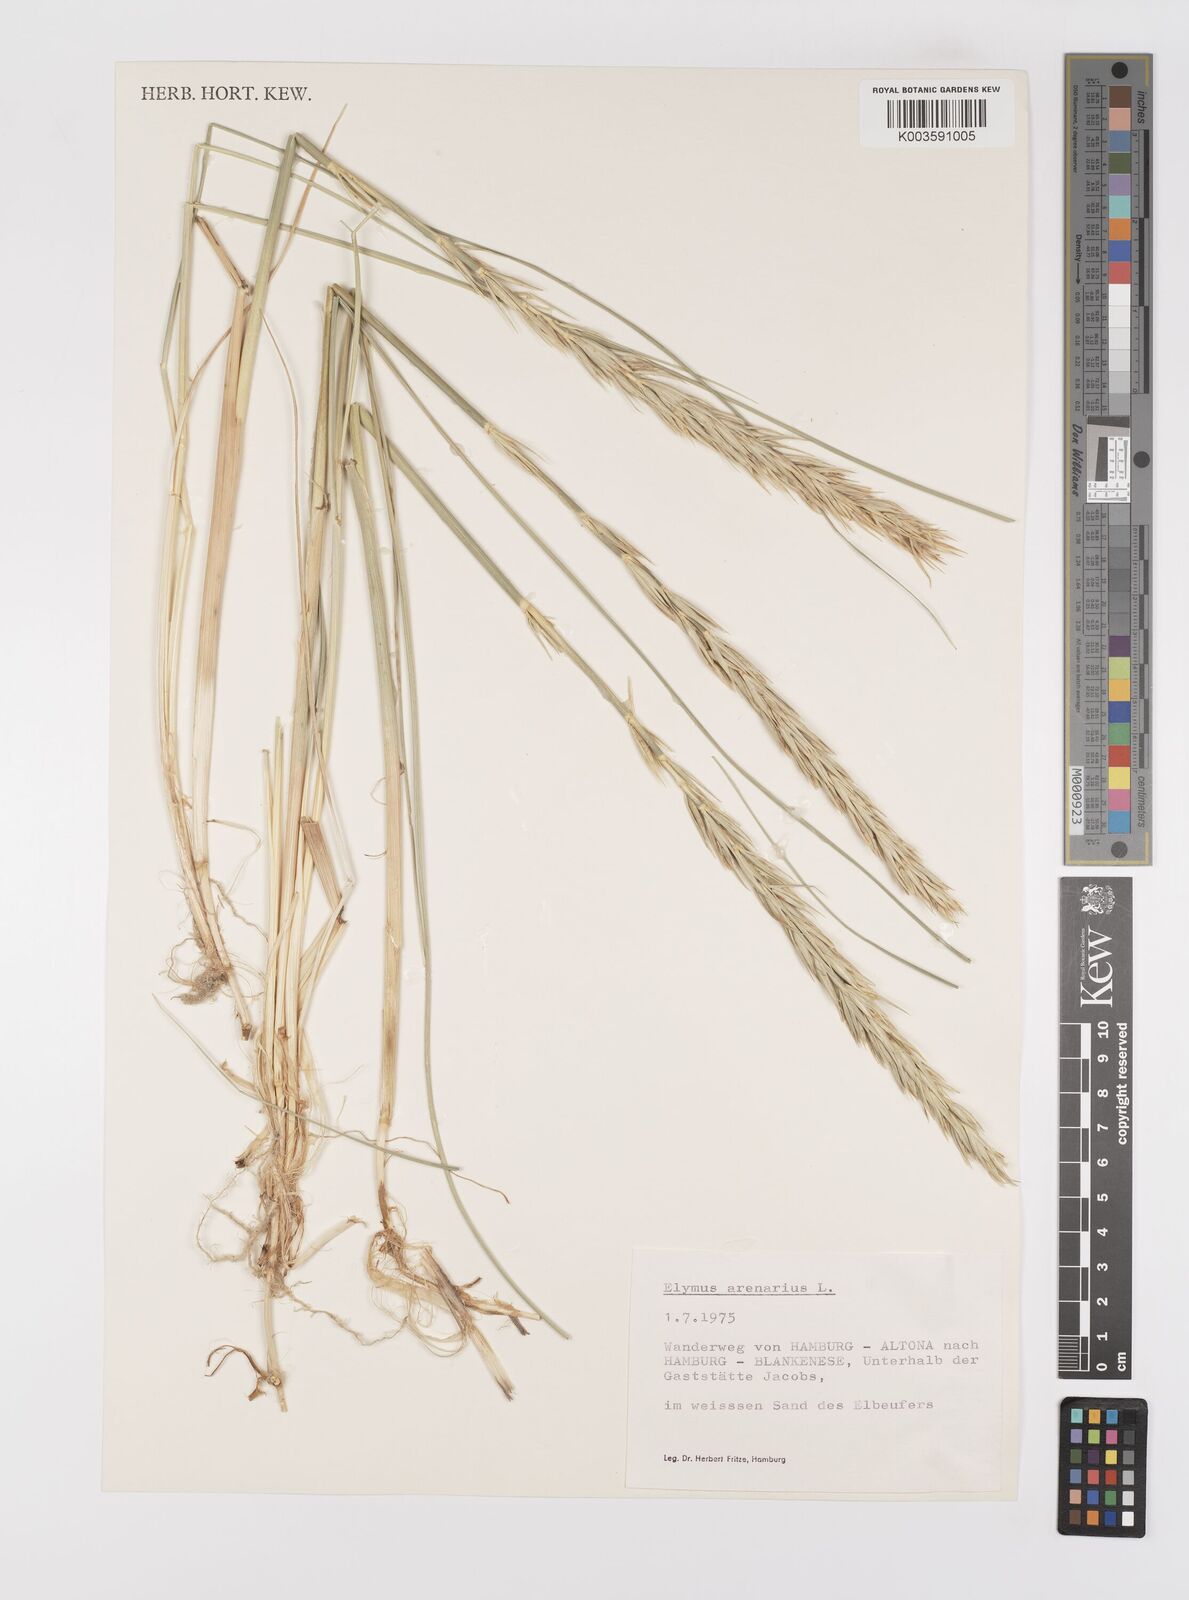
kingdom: Plantae
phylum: Tracheophyta
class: Liliopsida
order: Poales
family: Poaceae
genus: Leymus
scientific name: Leymus arenarius
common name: Lyme-grass
